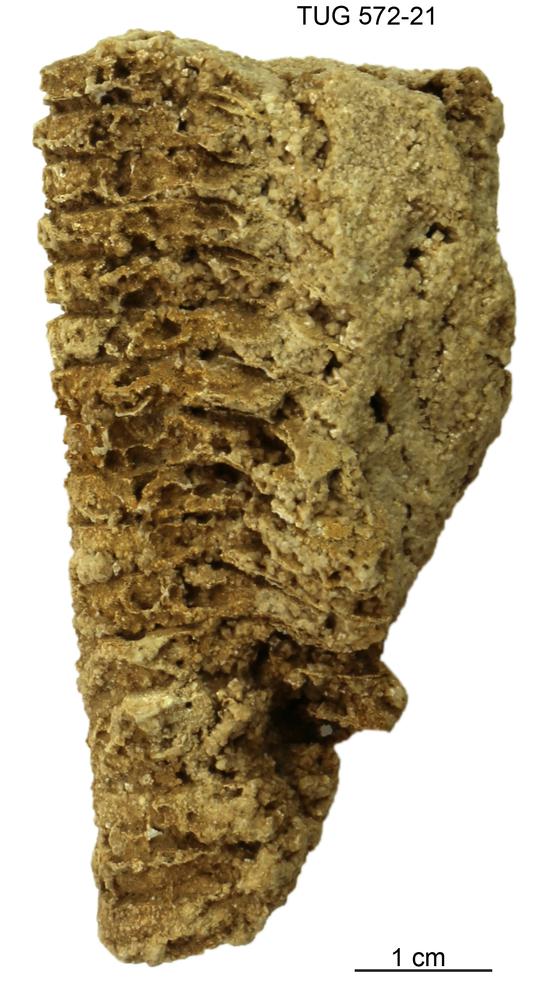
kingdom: Animalia
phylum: Mollusca
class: Cephalopoda
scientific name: Cephalopoda
